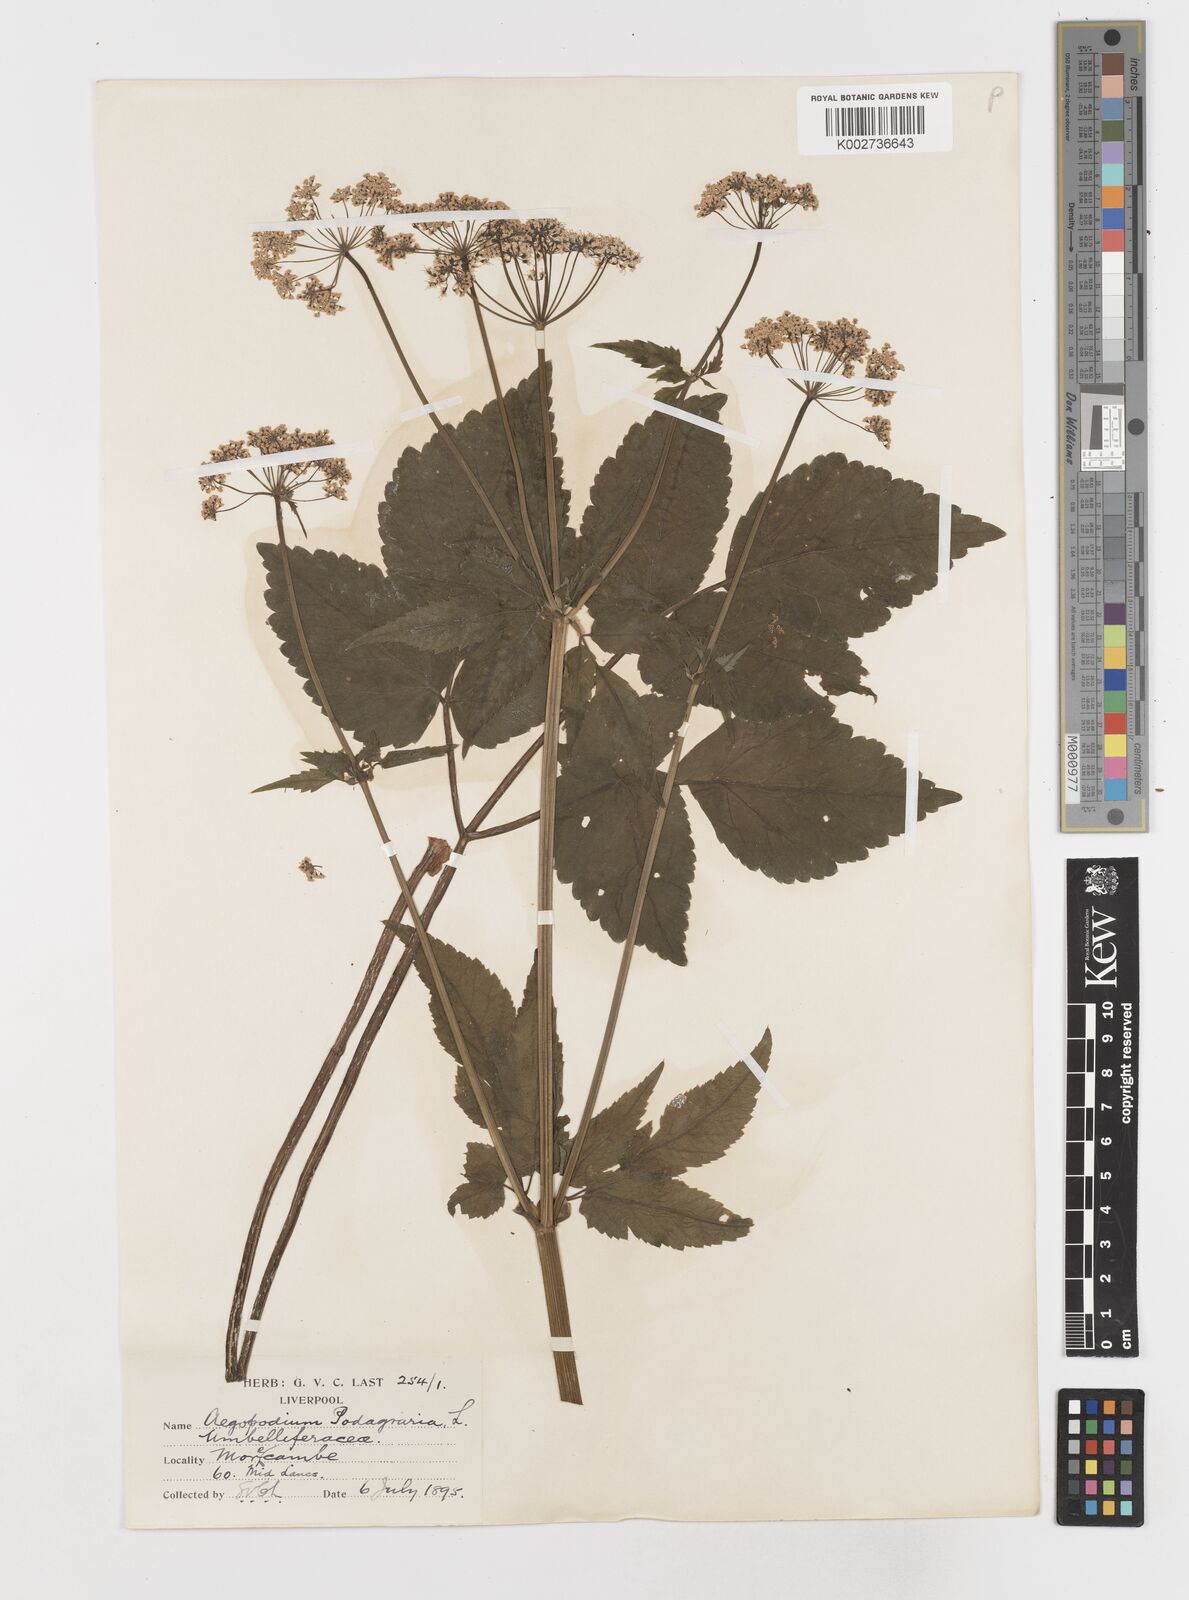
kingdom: Plantae
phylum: Tracheophyta
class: Magnoliopsida
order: Apiales
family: Apiaceae
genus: Aegopodium
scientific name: Aegopodium podagraria
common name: Ground-elder
